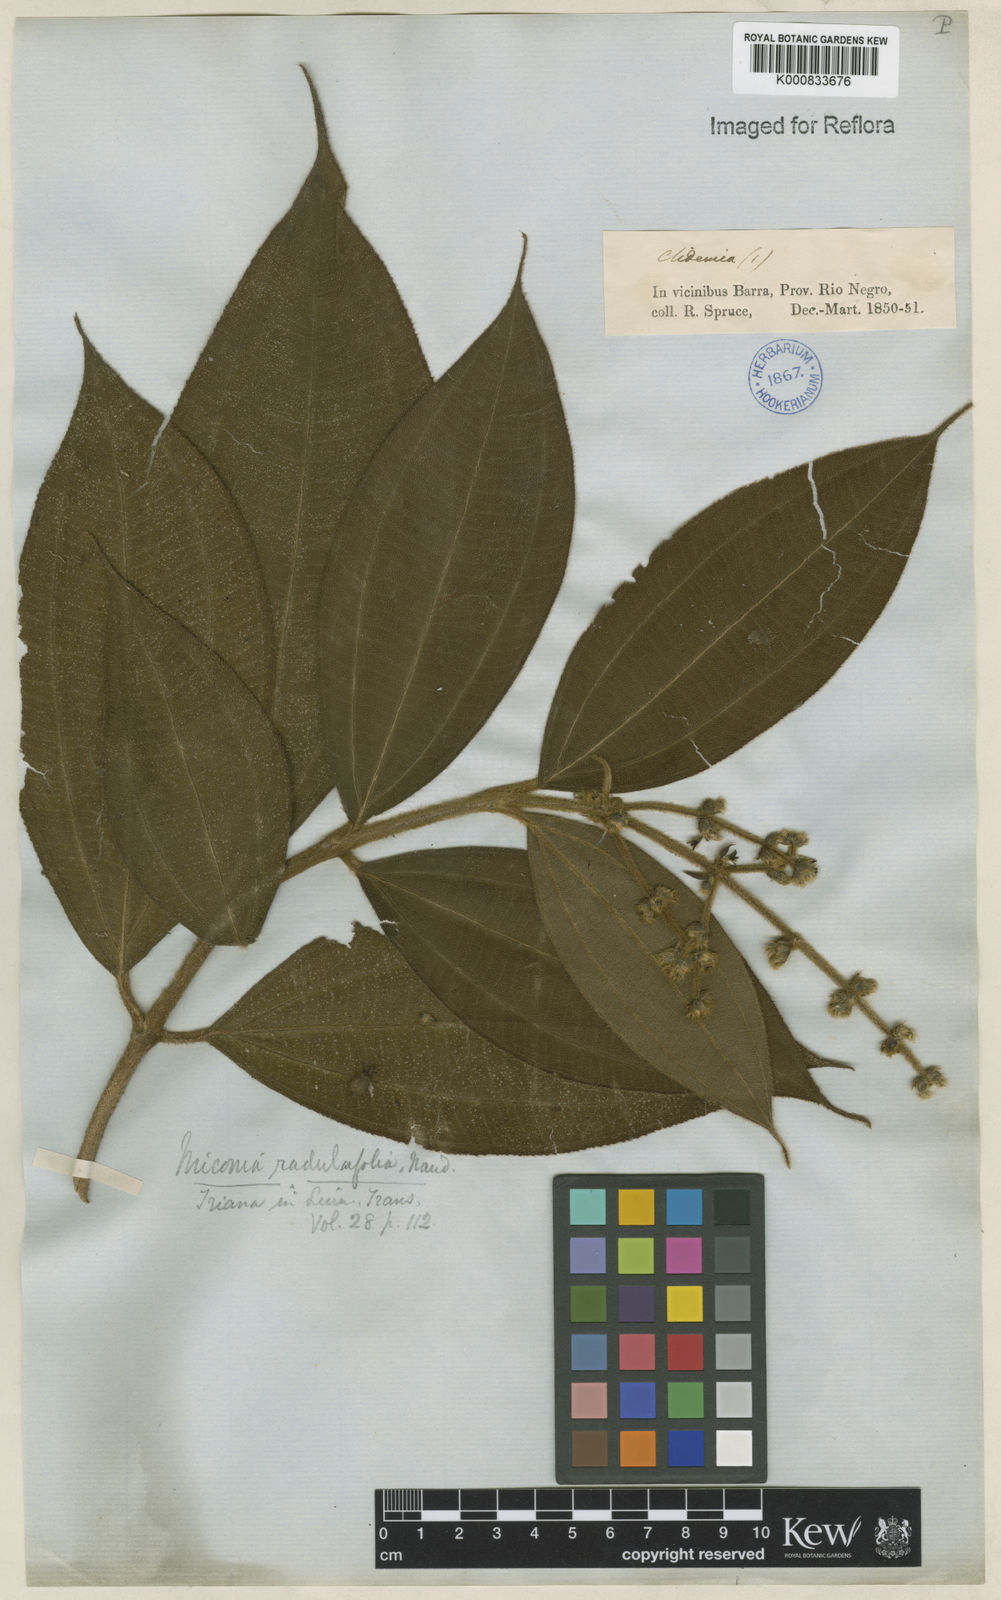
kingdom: Plantae
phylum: Tracheophyta
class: Magnoliopsida
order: Myrtales
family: Melastomataceae
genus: Miconia
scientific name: Miconia radulifolia
